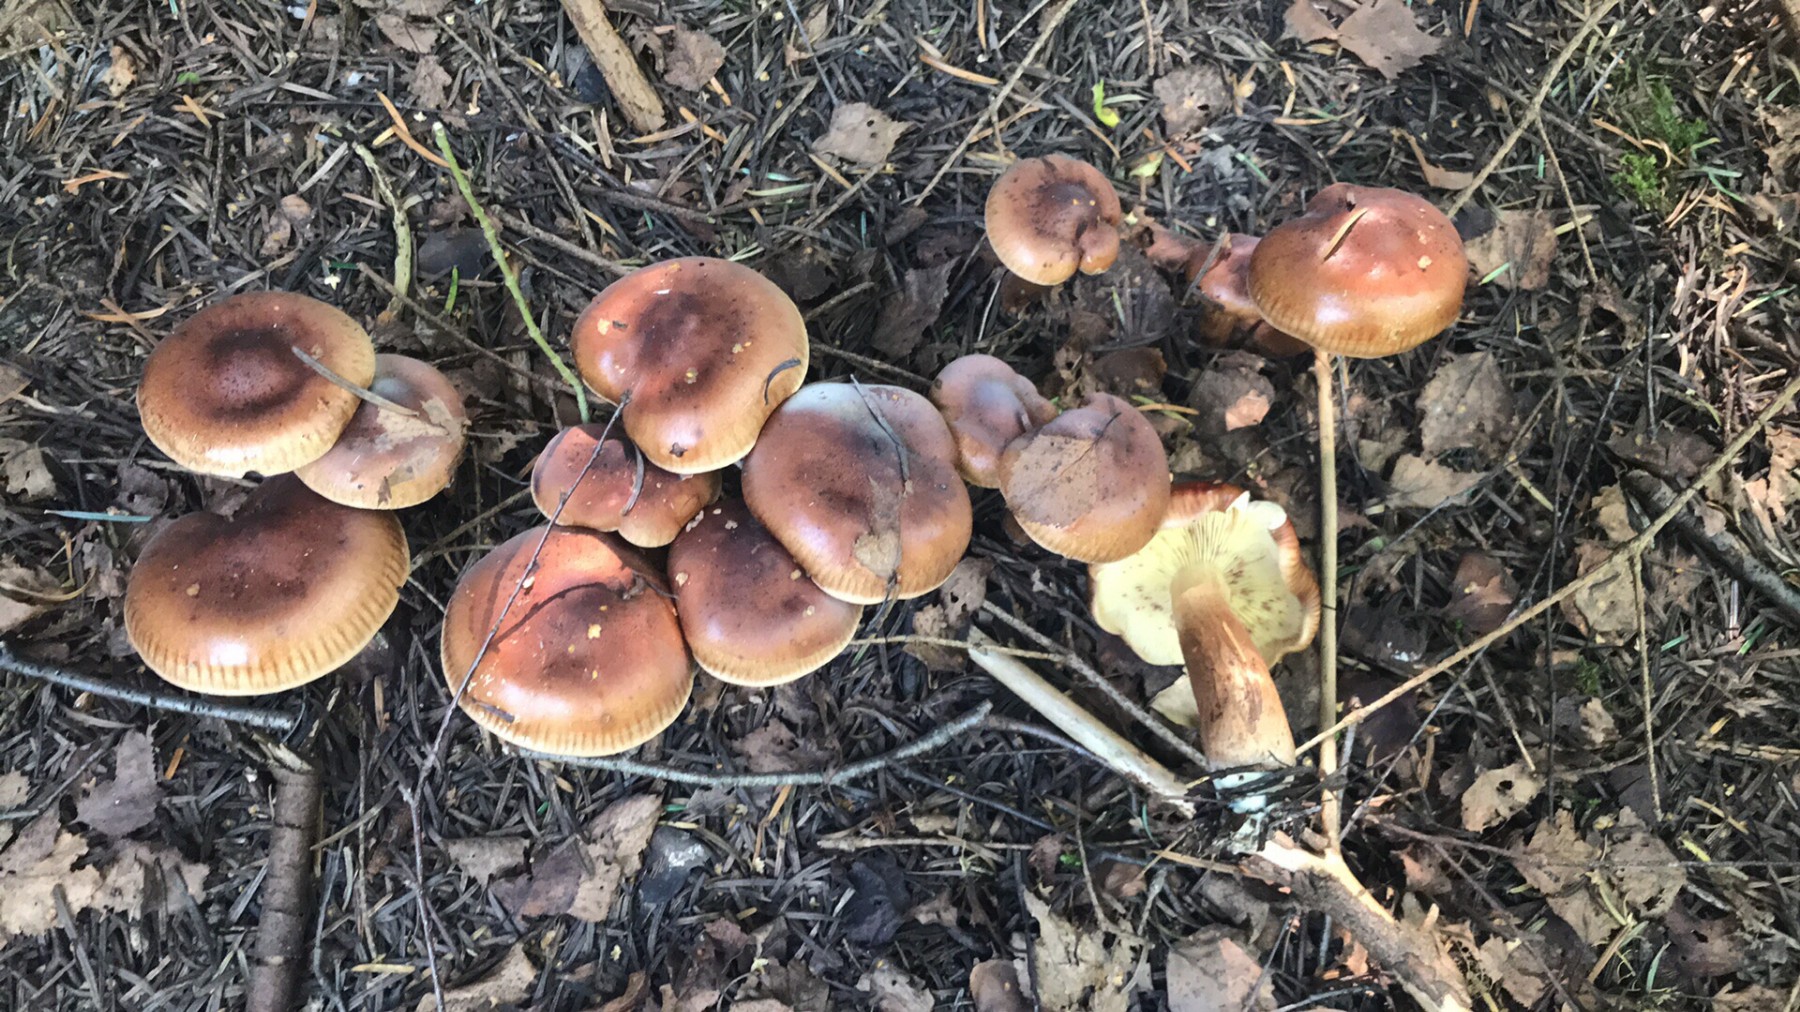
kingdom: Fungi
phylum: Basidiomycota
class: Agaricomycetes
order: Agaricales
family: Tricholomataceae
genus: Tricholoma
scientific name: Tricholoma fulvum
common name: birke-ridderhat
